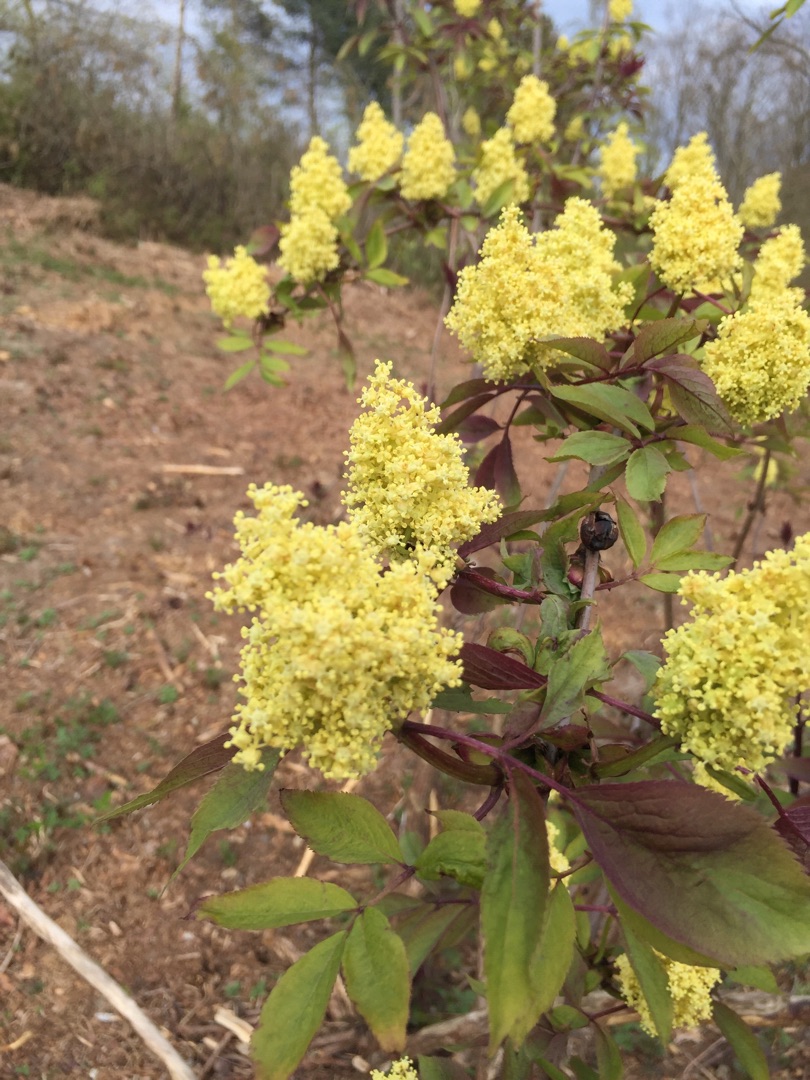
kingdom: Plantae
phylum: Tracheophyta
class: Magnoliopsida
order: Dipsacales
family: Viburnaceae
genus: Sambucus
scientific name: Sambucus racemosa
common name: Drue-hyld
